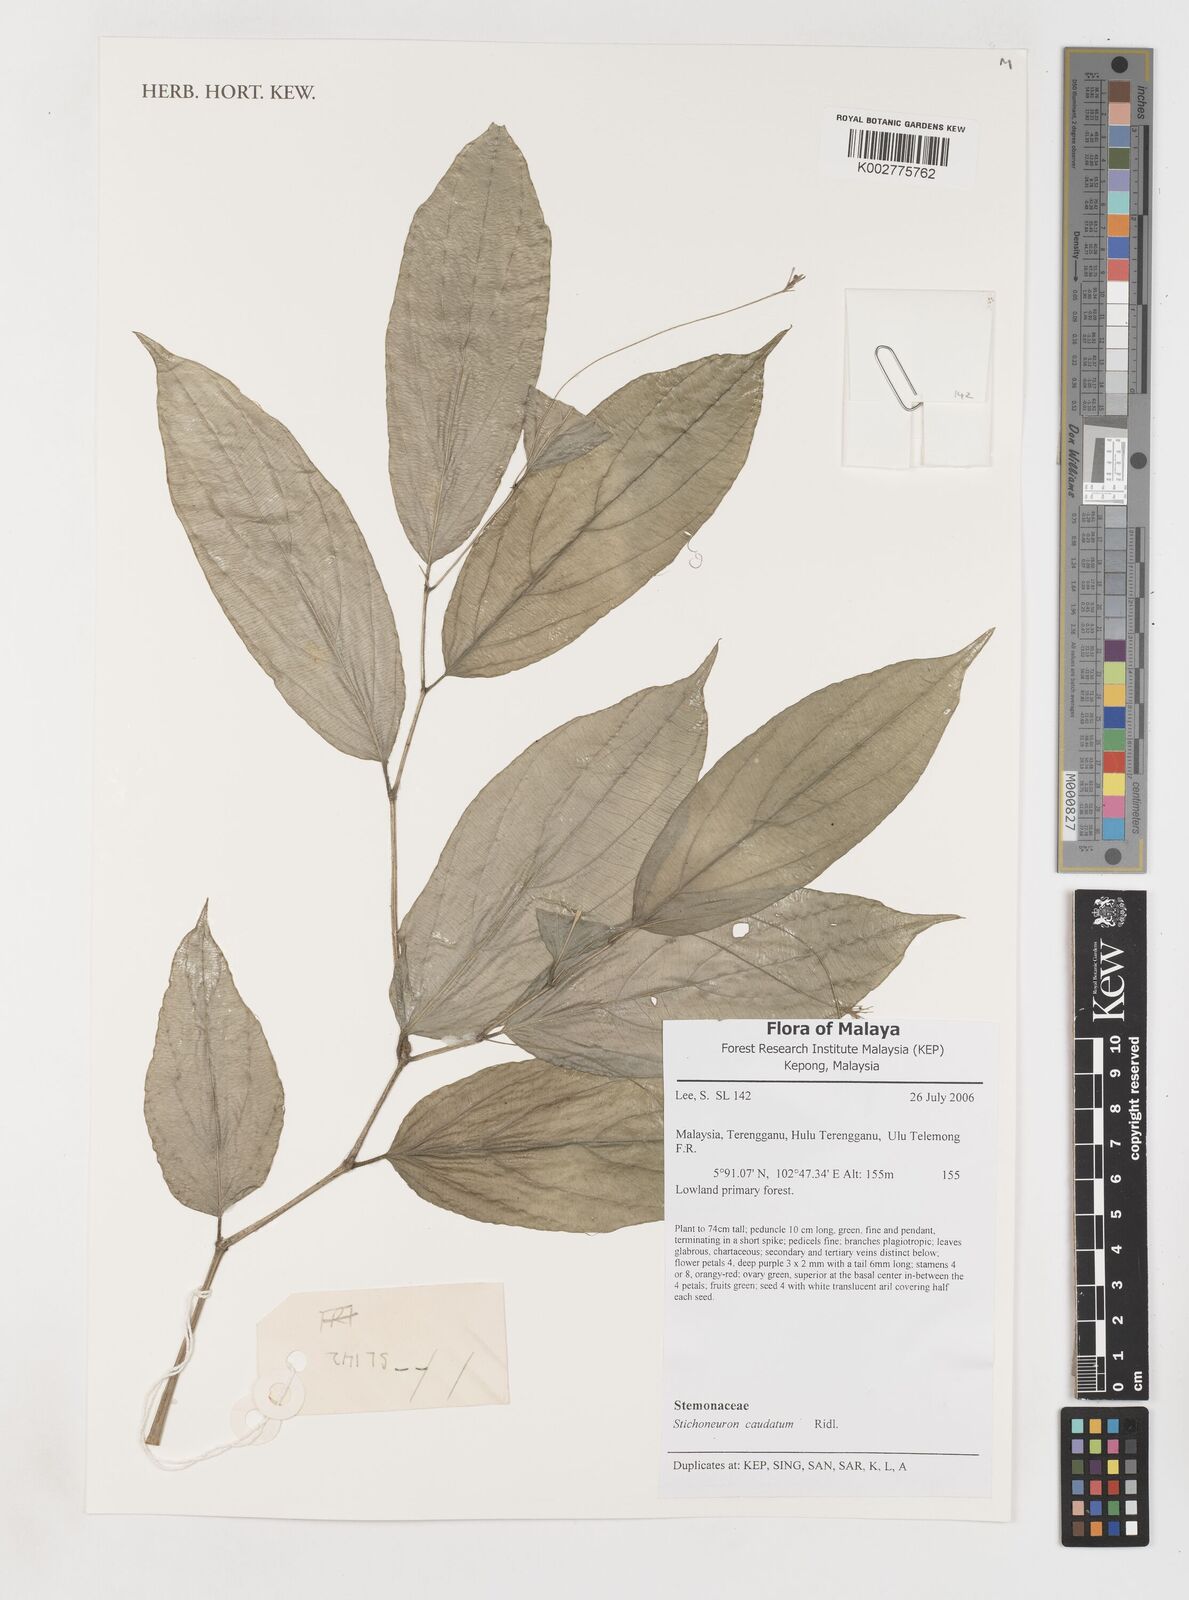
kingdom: Plantae
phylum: Tracheophyta
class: Liliopsida
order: Pandanales
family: Stemonaceae
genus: Stichoneuron
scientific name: Stichoneuron caudatum
